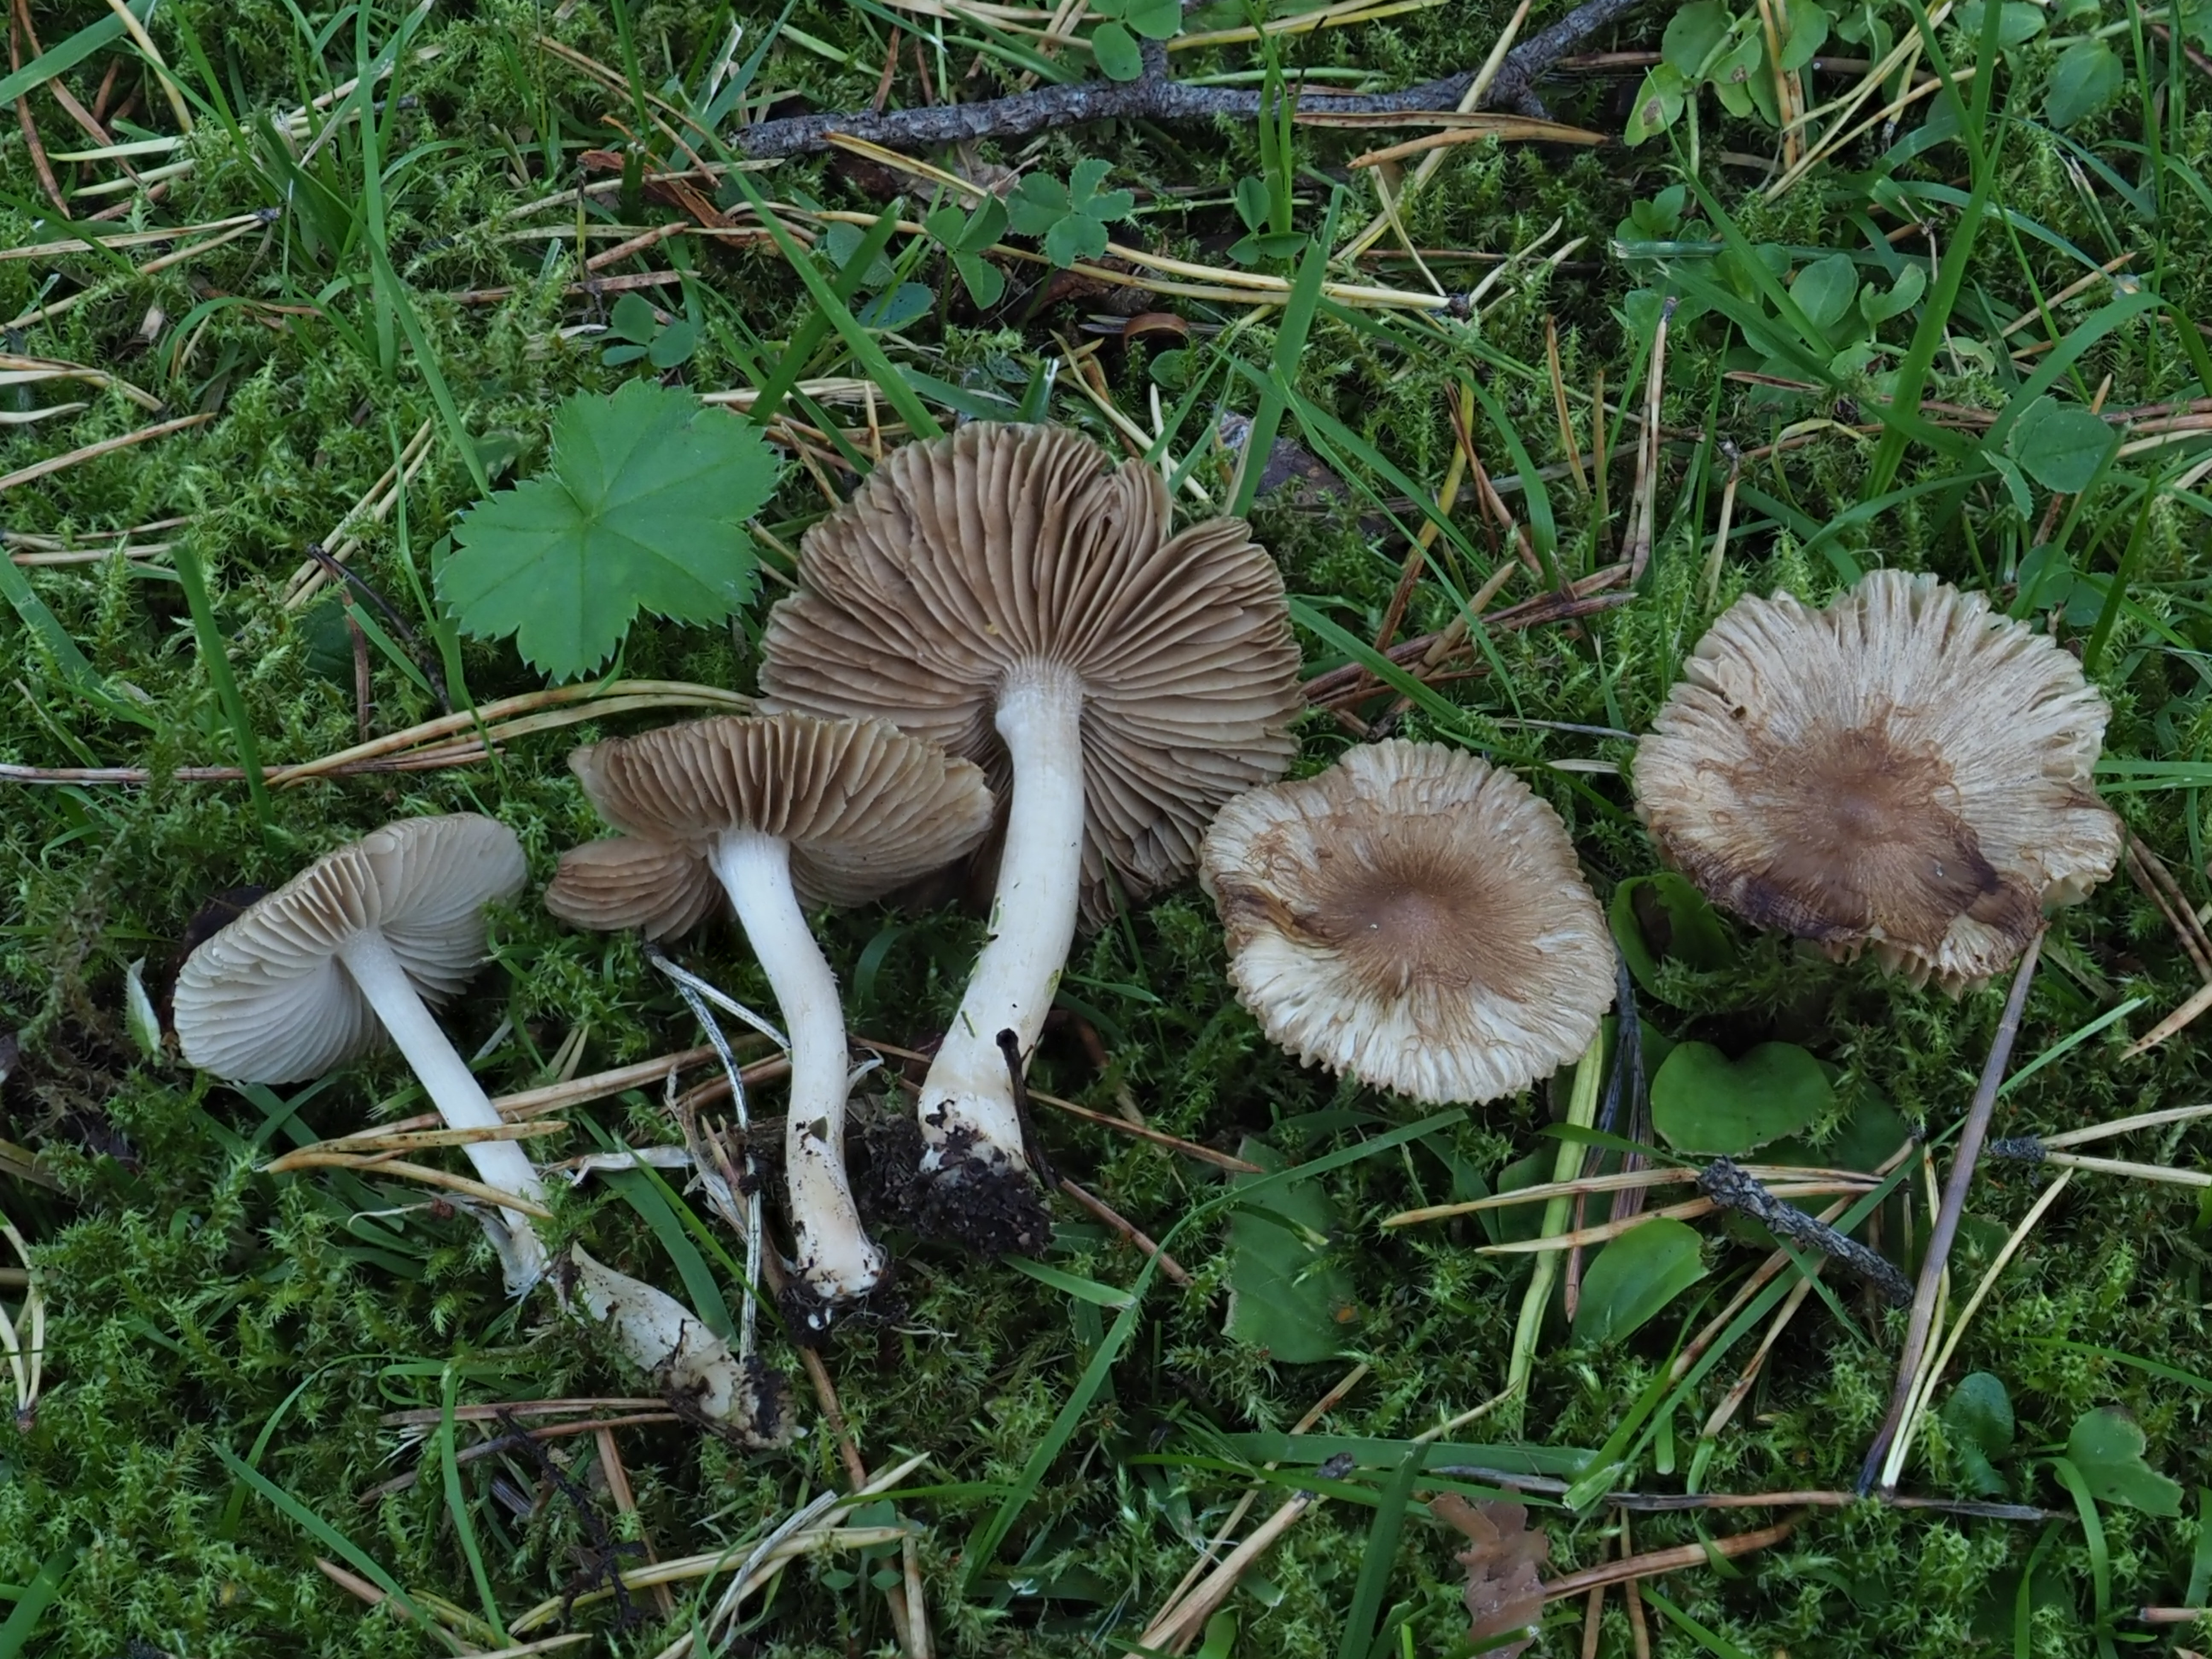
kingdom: Fungi
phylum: Basidiomycota
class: Agaricomycetes
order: Agaricales
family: Inocybaceae
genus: Inocybe
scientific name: Inocybe
